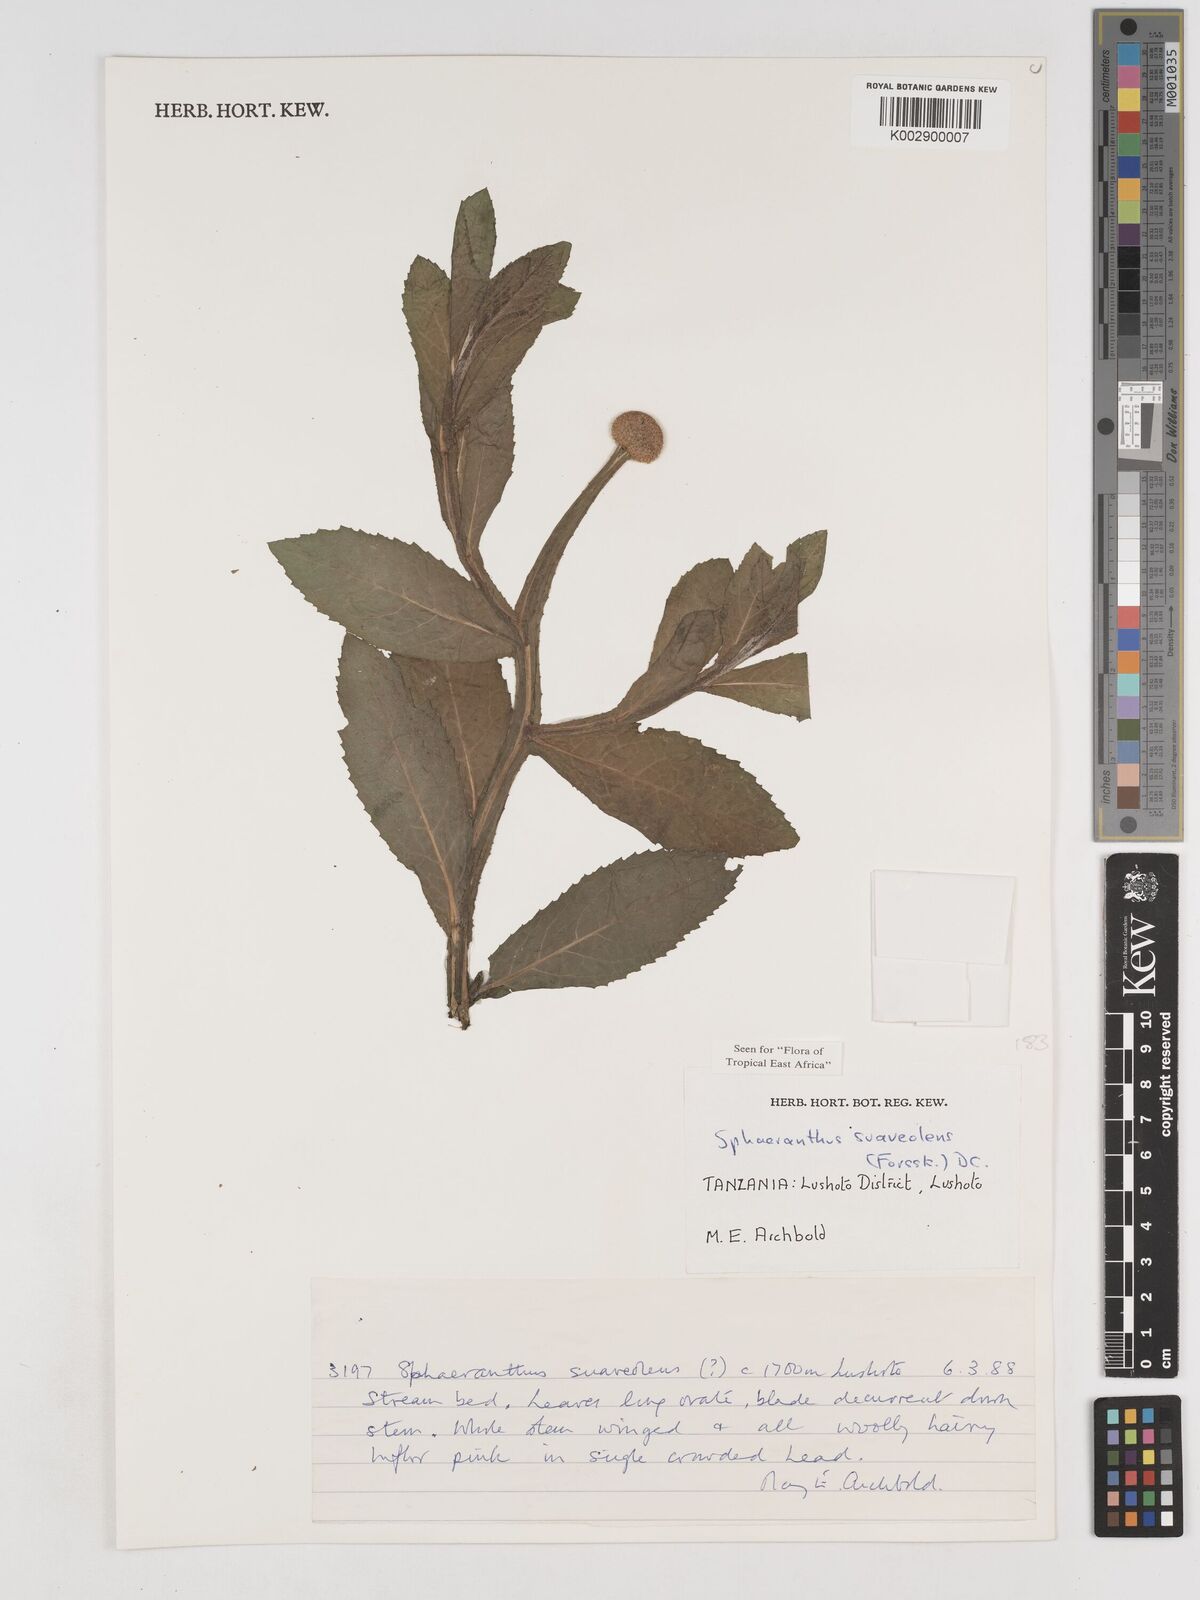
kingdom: Plantae
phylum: Tracheophyta
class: Magnoliopsida
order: Asterales
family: Asteraceae
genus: Sphaeranthus
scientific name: Sphaeranthus suaveolens
